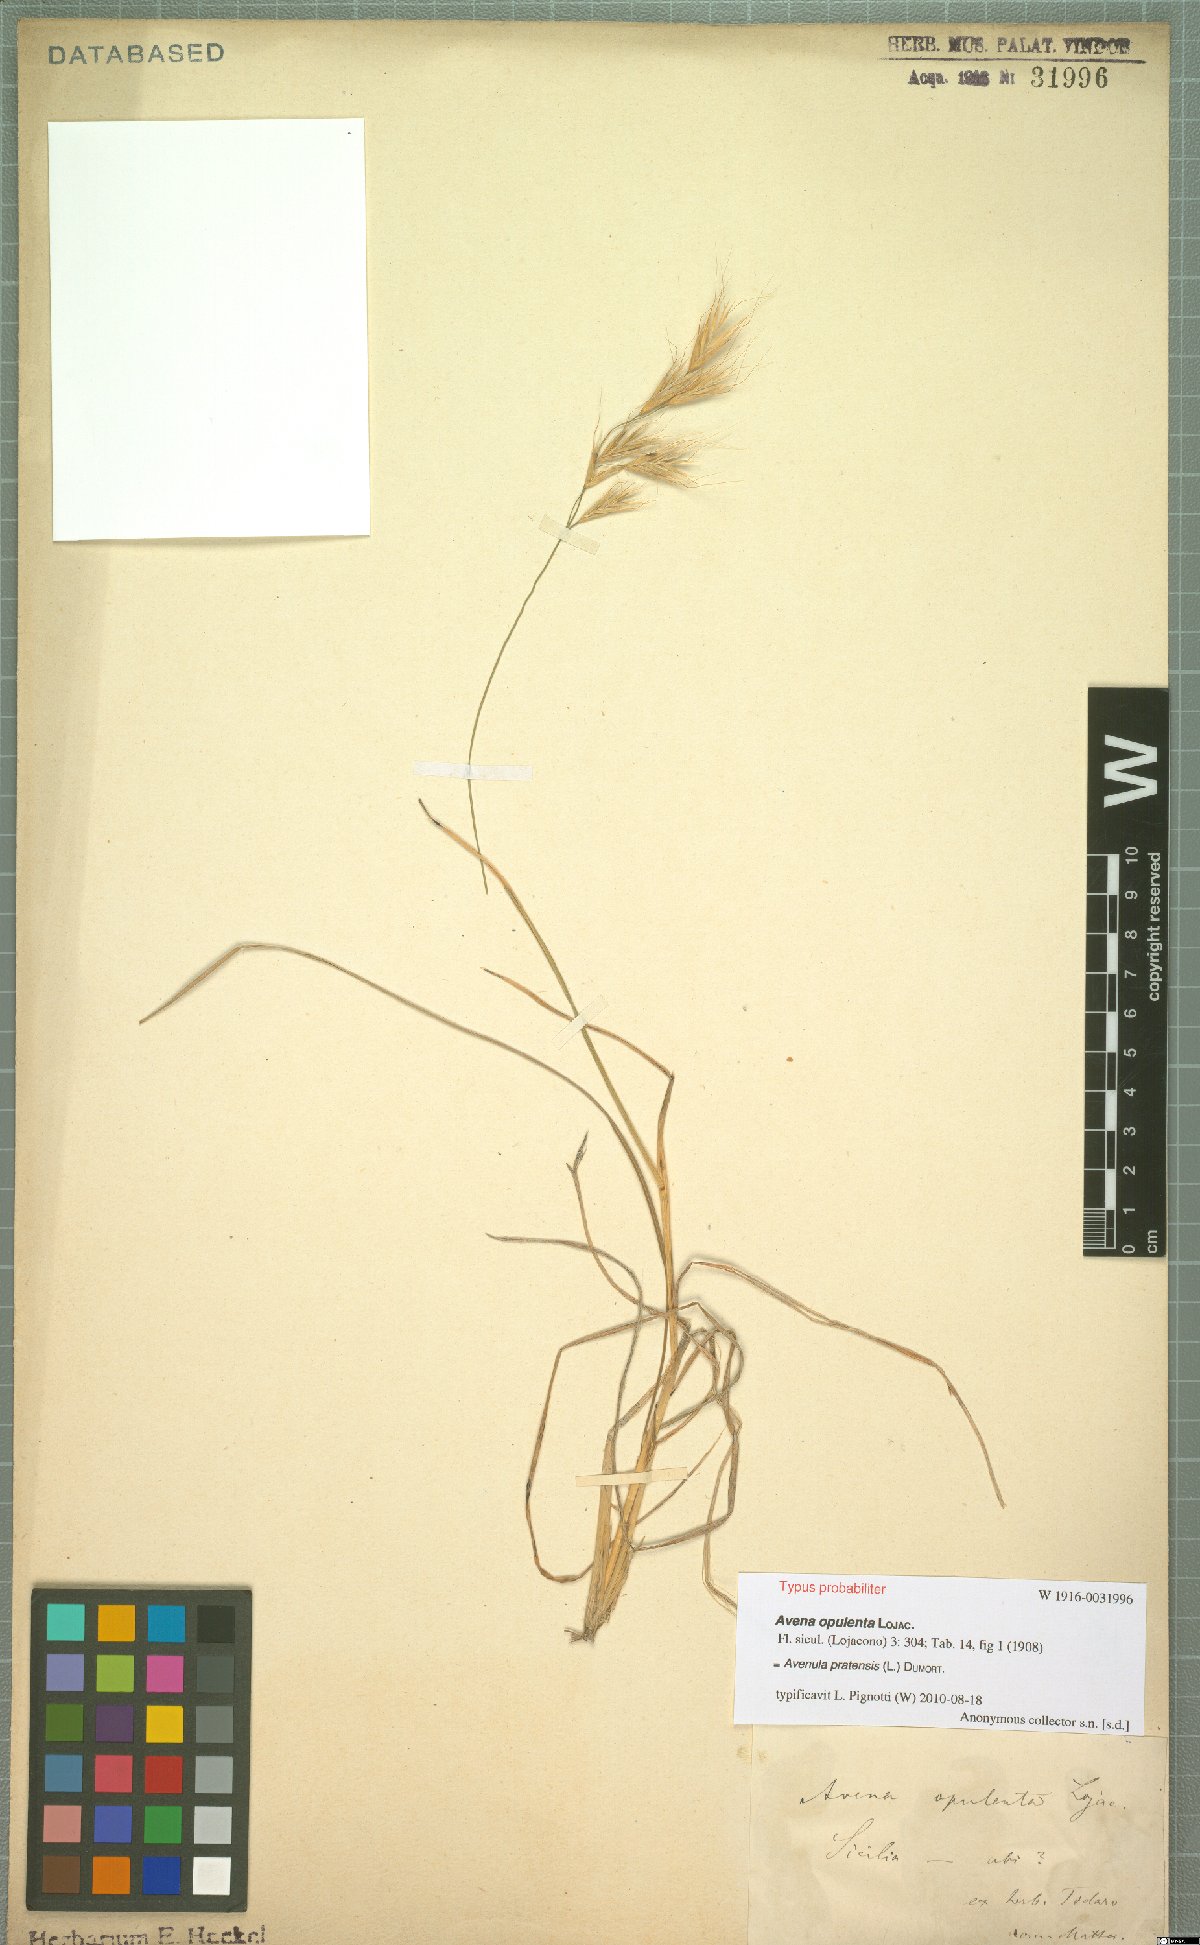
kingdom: Plantae
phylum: Tracheophyta
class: Liliopsida
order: Poales
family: Poaceae
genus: Helictochloa
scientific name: Helictochloa pratensis
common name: Meadow oat grass
